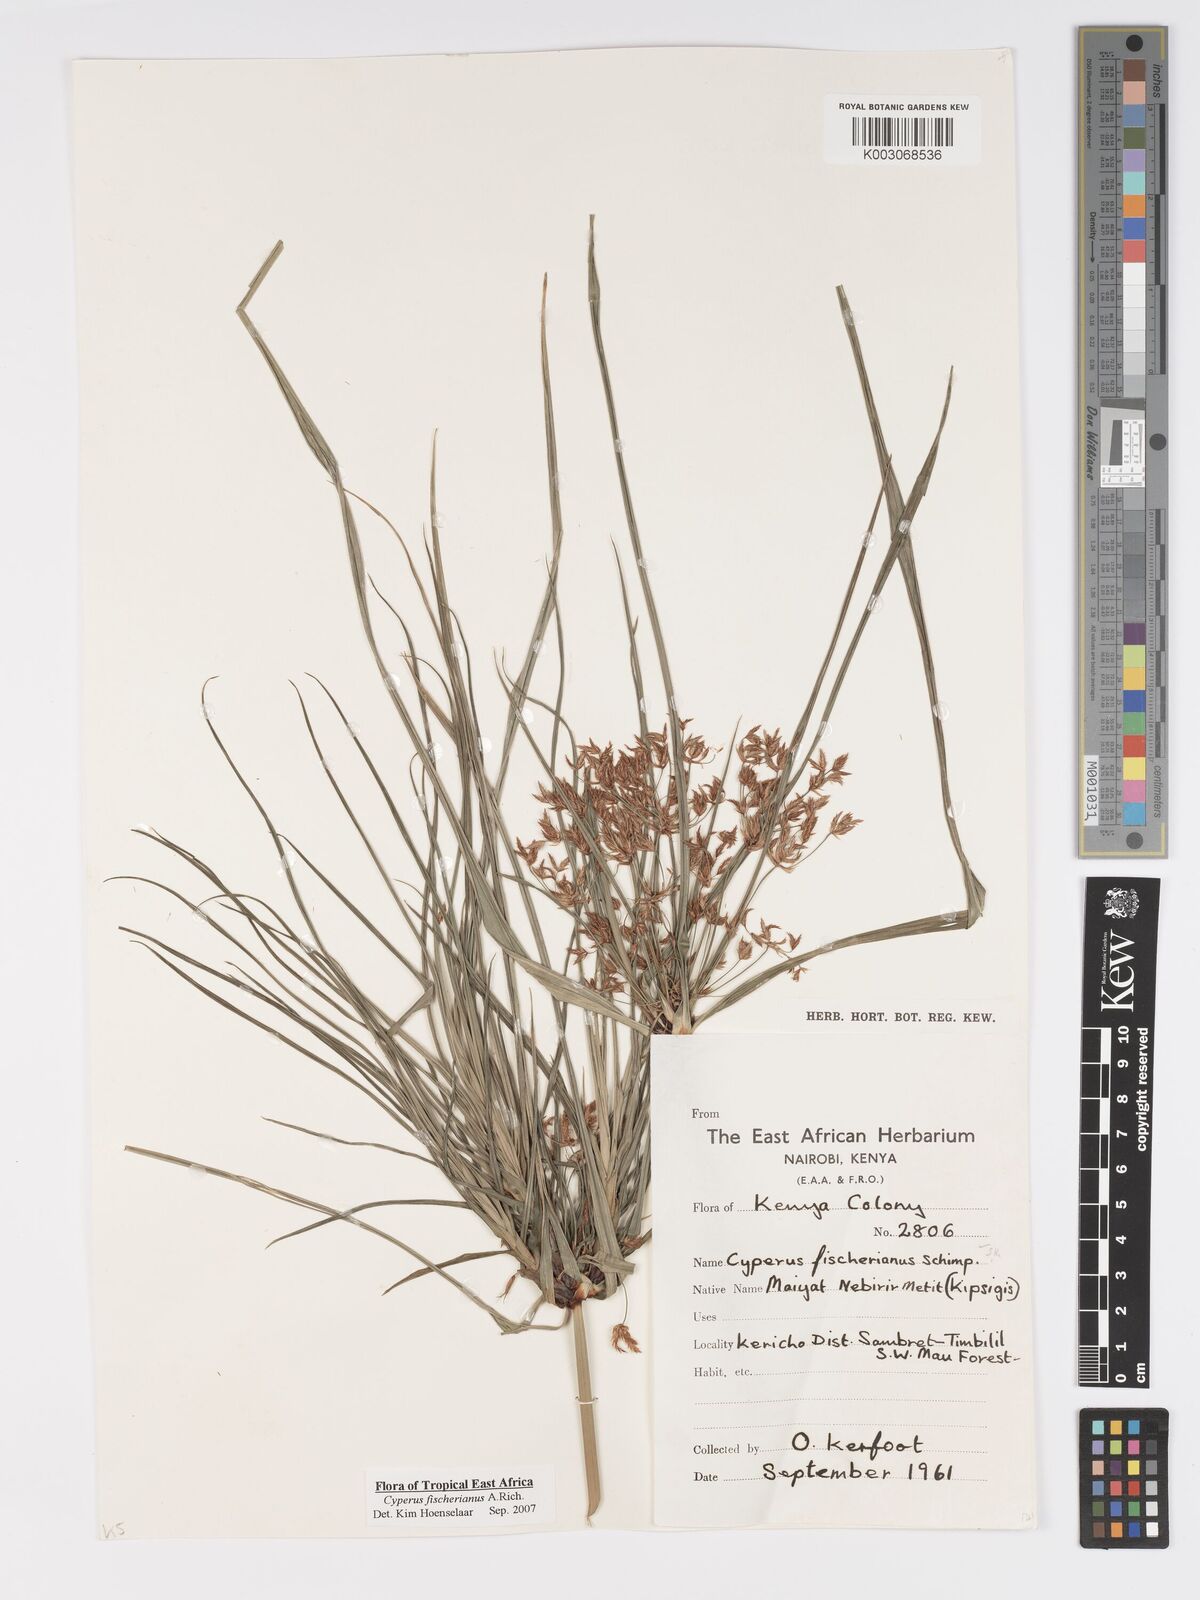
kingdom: Plantae
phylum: Tracheophyta
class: Liliopsida
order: Poales
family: Cyperaceae
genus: Cyperus
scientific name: Cyperus fischerianus
